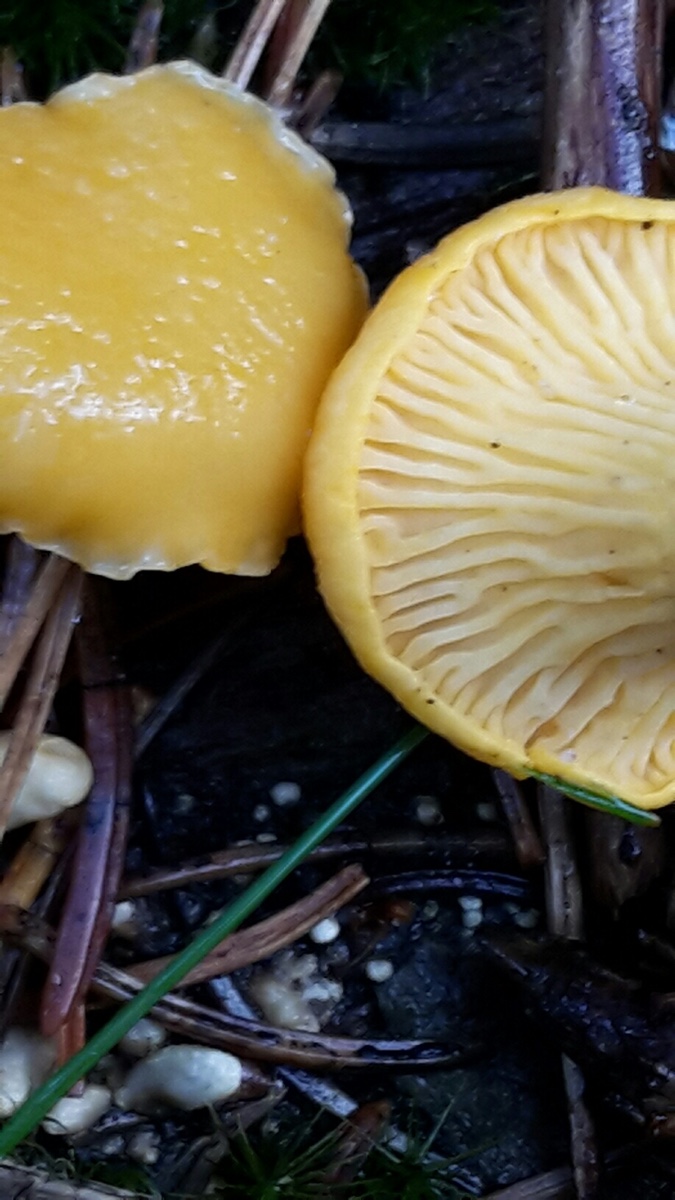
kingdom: Fungi
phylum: Basidiomycota
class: Agaricomycetes
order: Cantharellales
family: Hydnaceae
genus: Cantharellus
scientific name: Cantharellus cibarius
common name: almindelig kantarel
